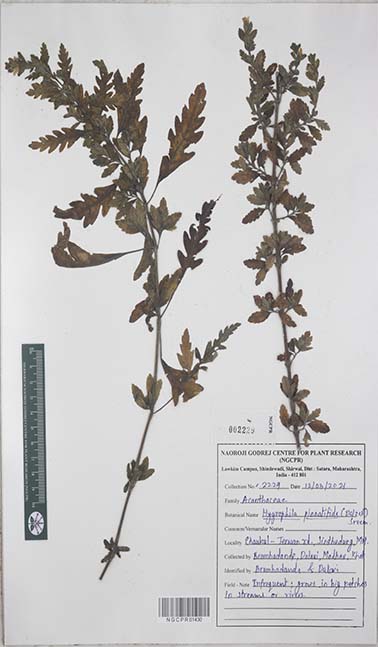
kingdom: Plantae
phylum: Tracheophyta
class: Magnoliopsida
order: Lamiales
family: Acanthaceae
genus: Hygrophila
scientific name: Hygrophila pinnatifida
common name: Indian swampweed
